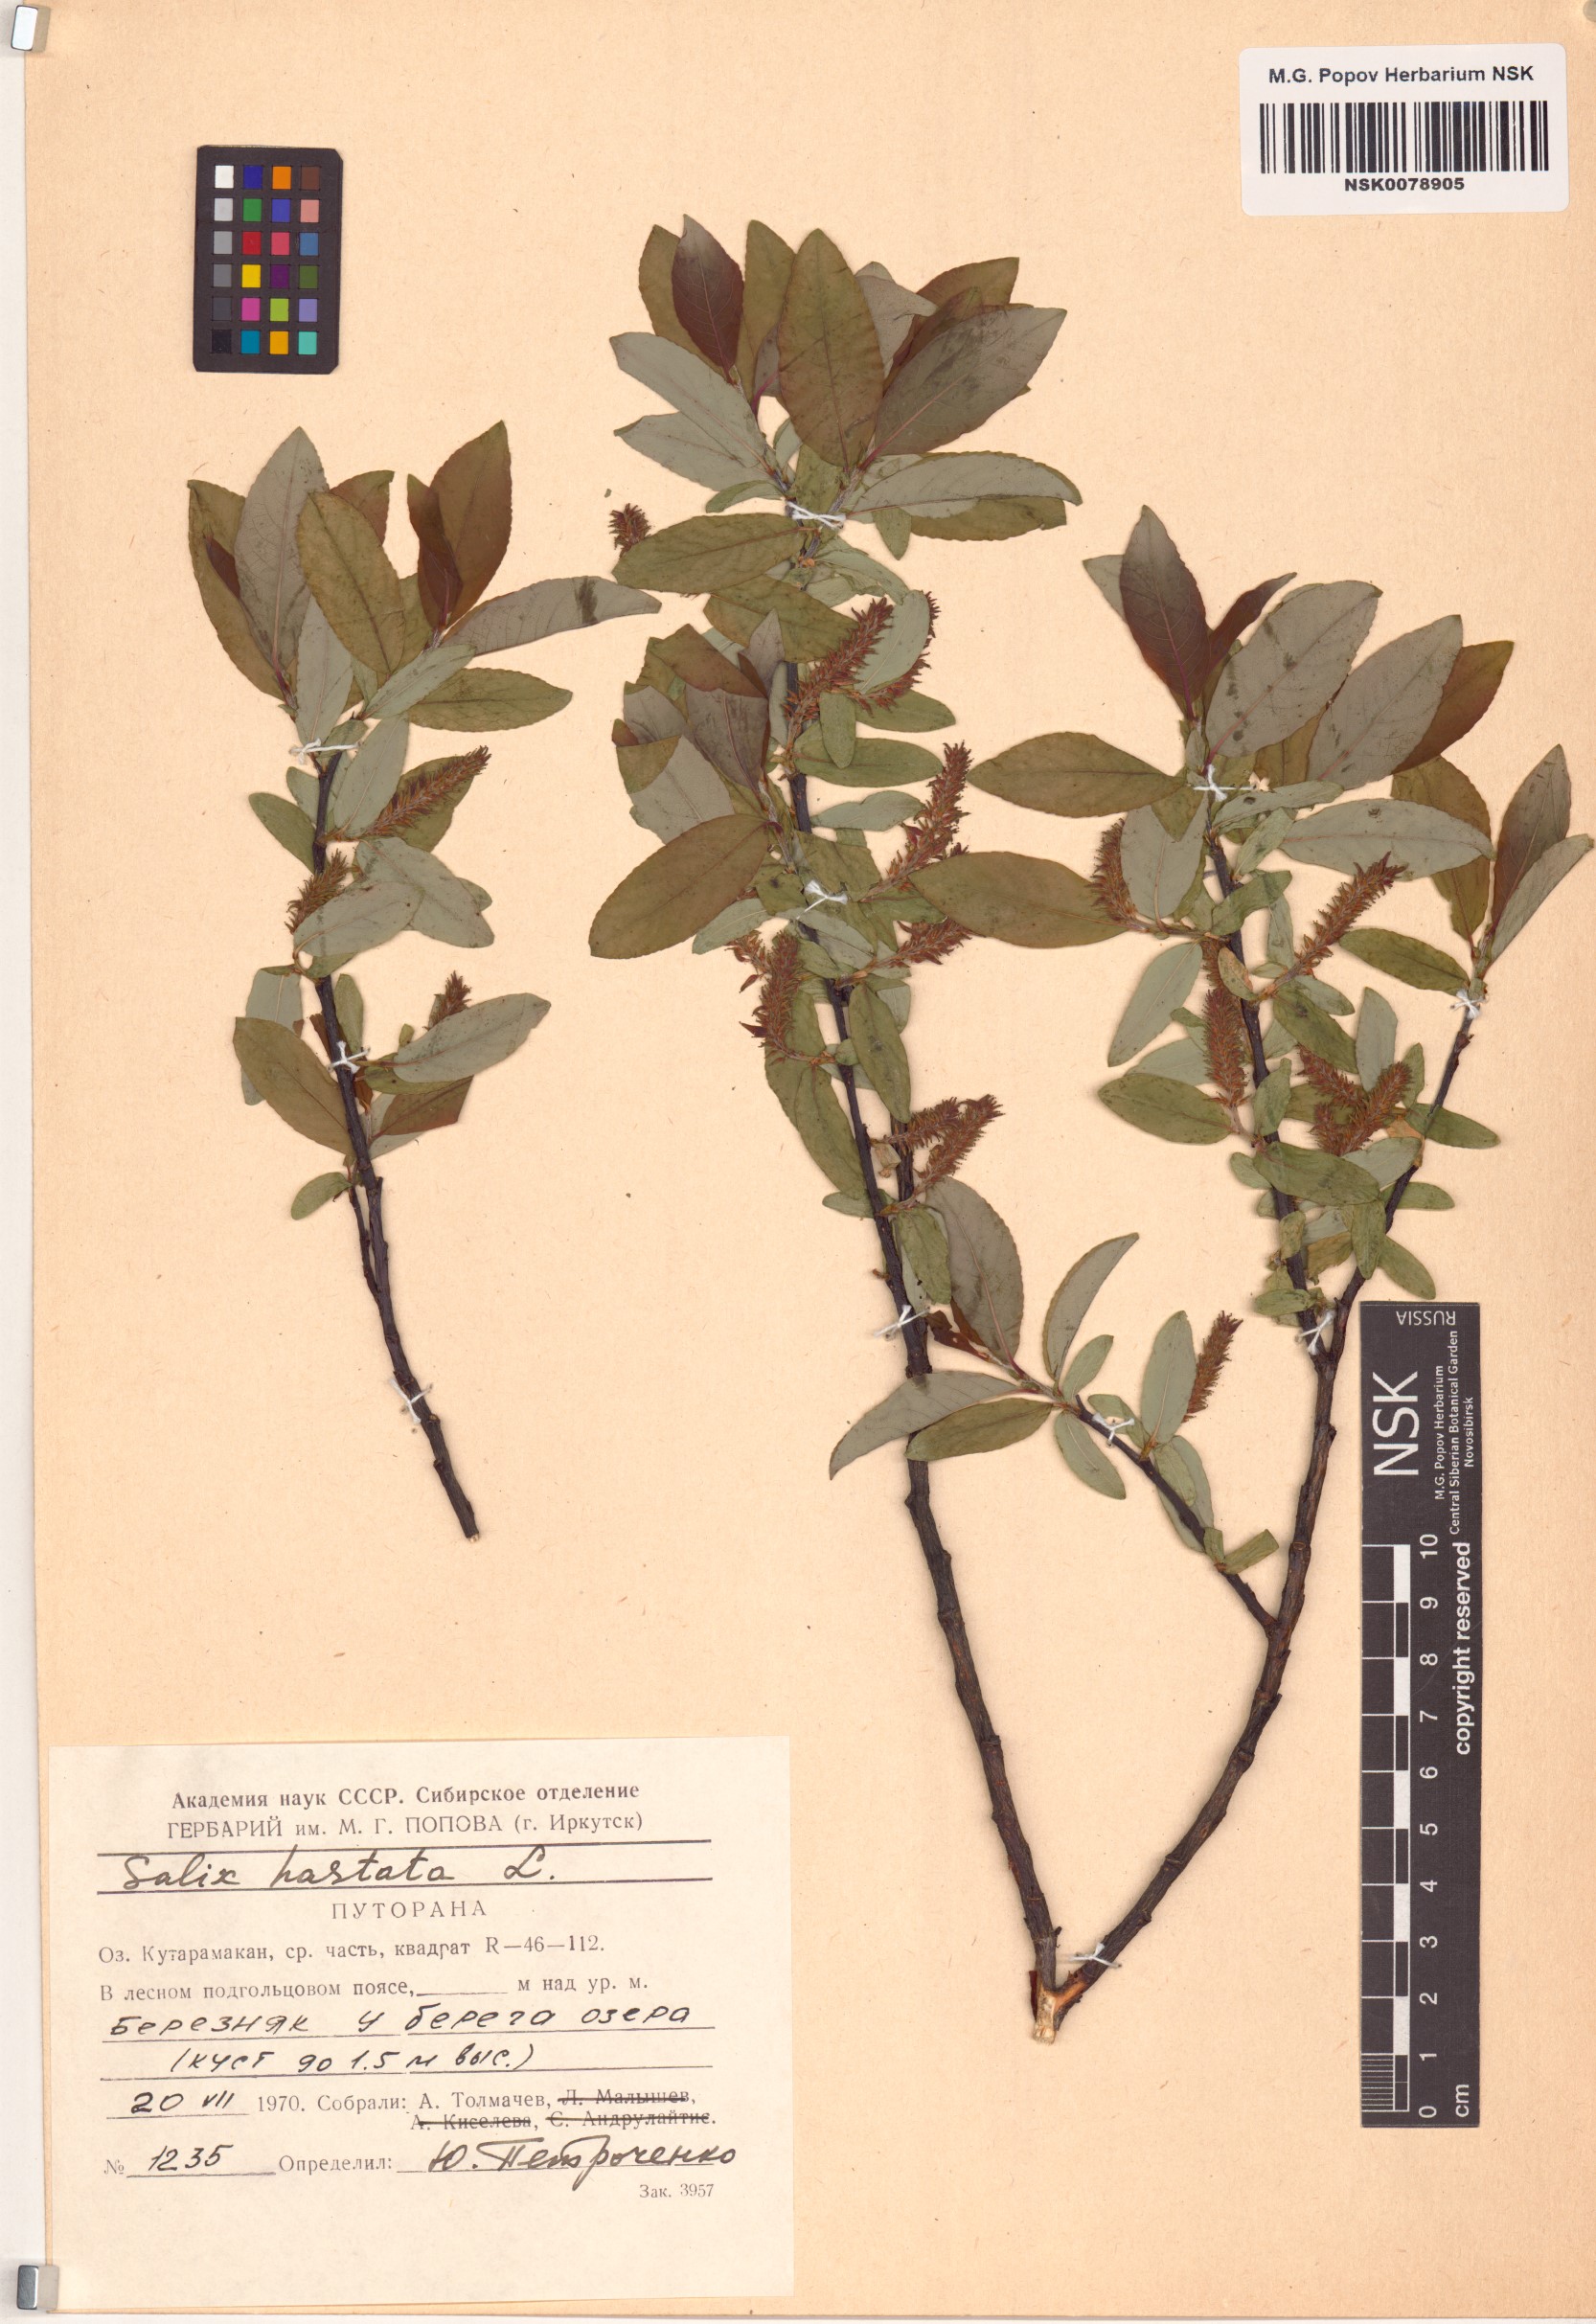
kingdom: Plantae
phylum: Tracheophyta
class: Magnoliopsida
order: Malpighiales
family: Salicaceae
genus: Salix
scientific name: Salix hastata
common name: Halberd willow
